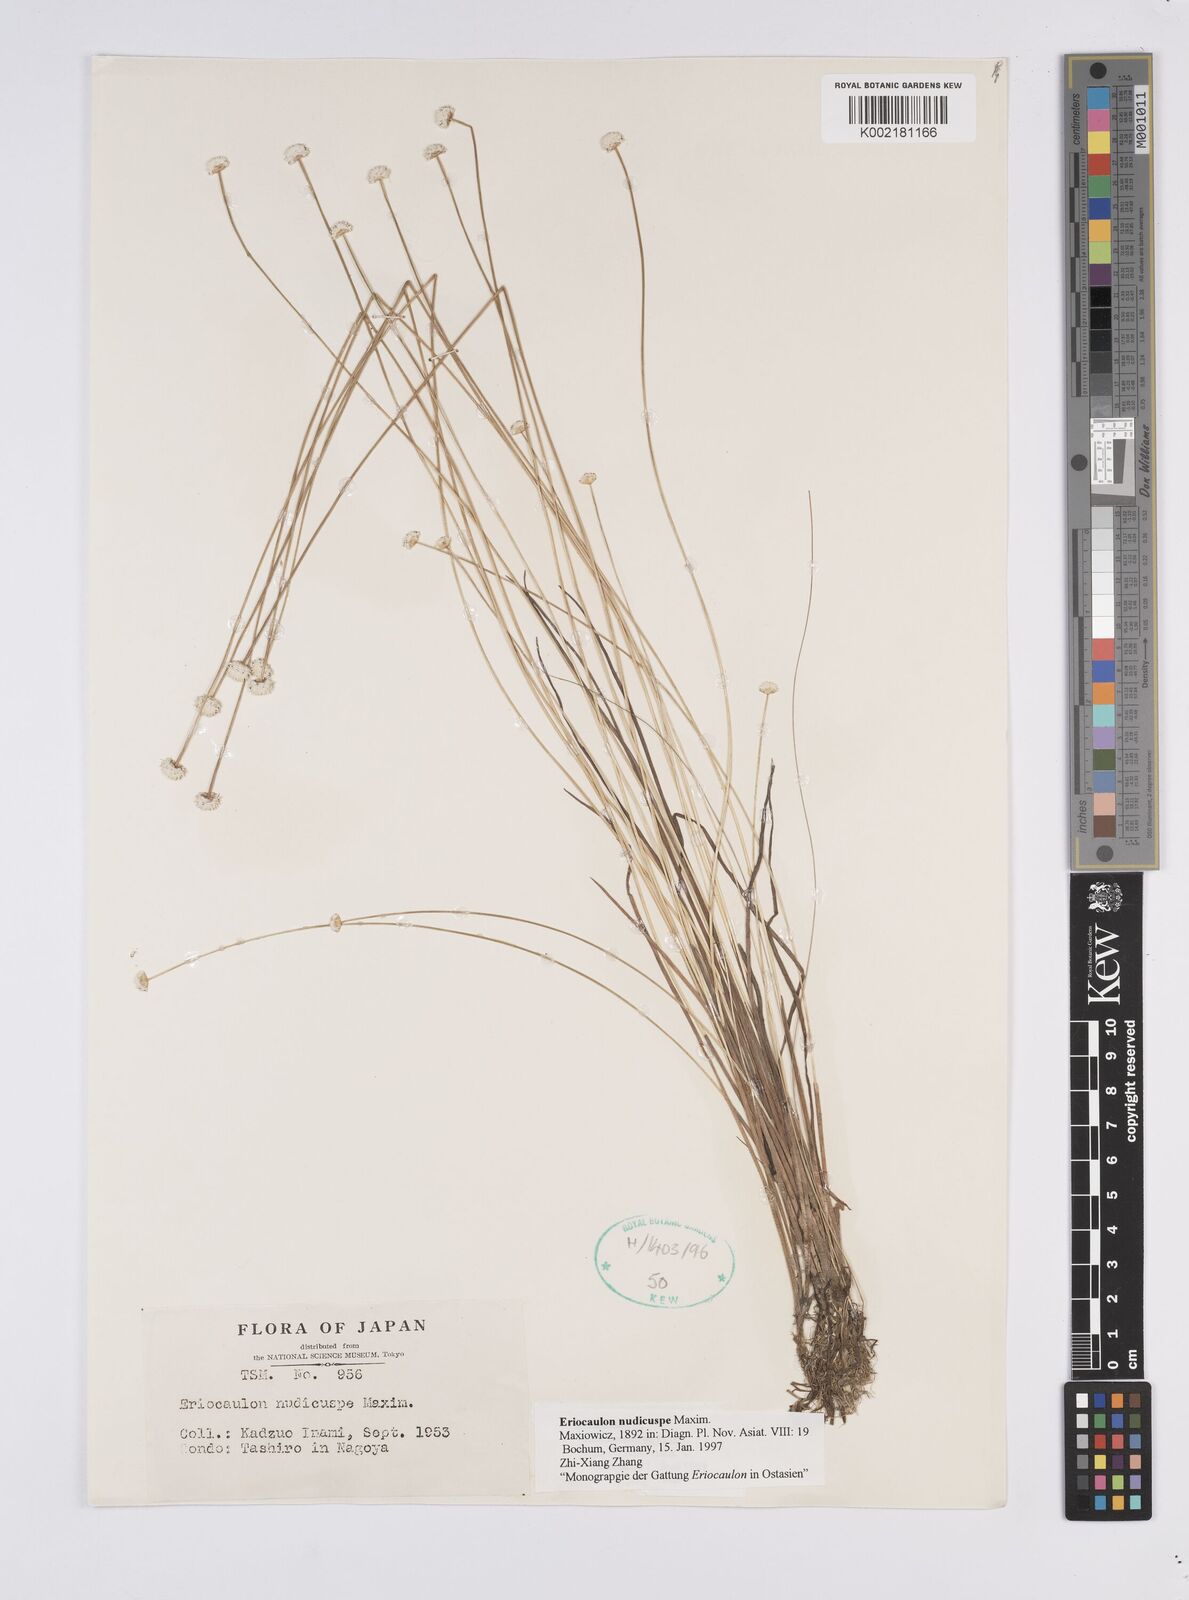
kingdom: Plantae
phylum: Tracheophyta
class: Liliopsida
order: Poales
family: Eriocaulaceae
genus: Eriocaulon
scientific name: Eriocaulon nudicuspe
